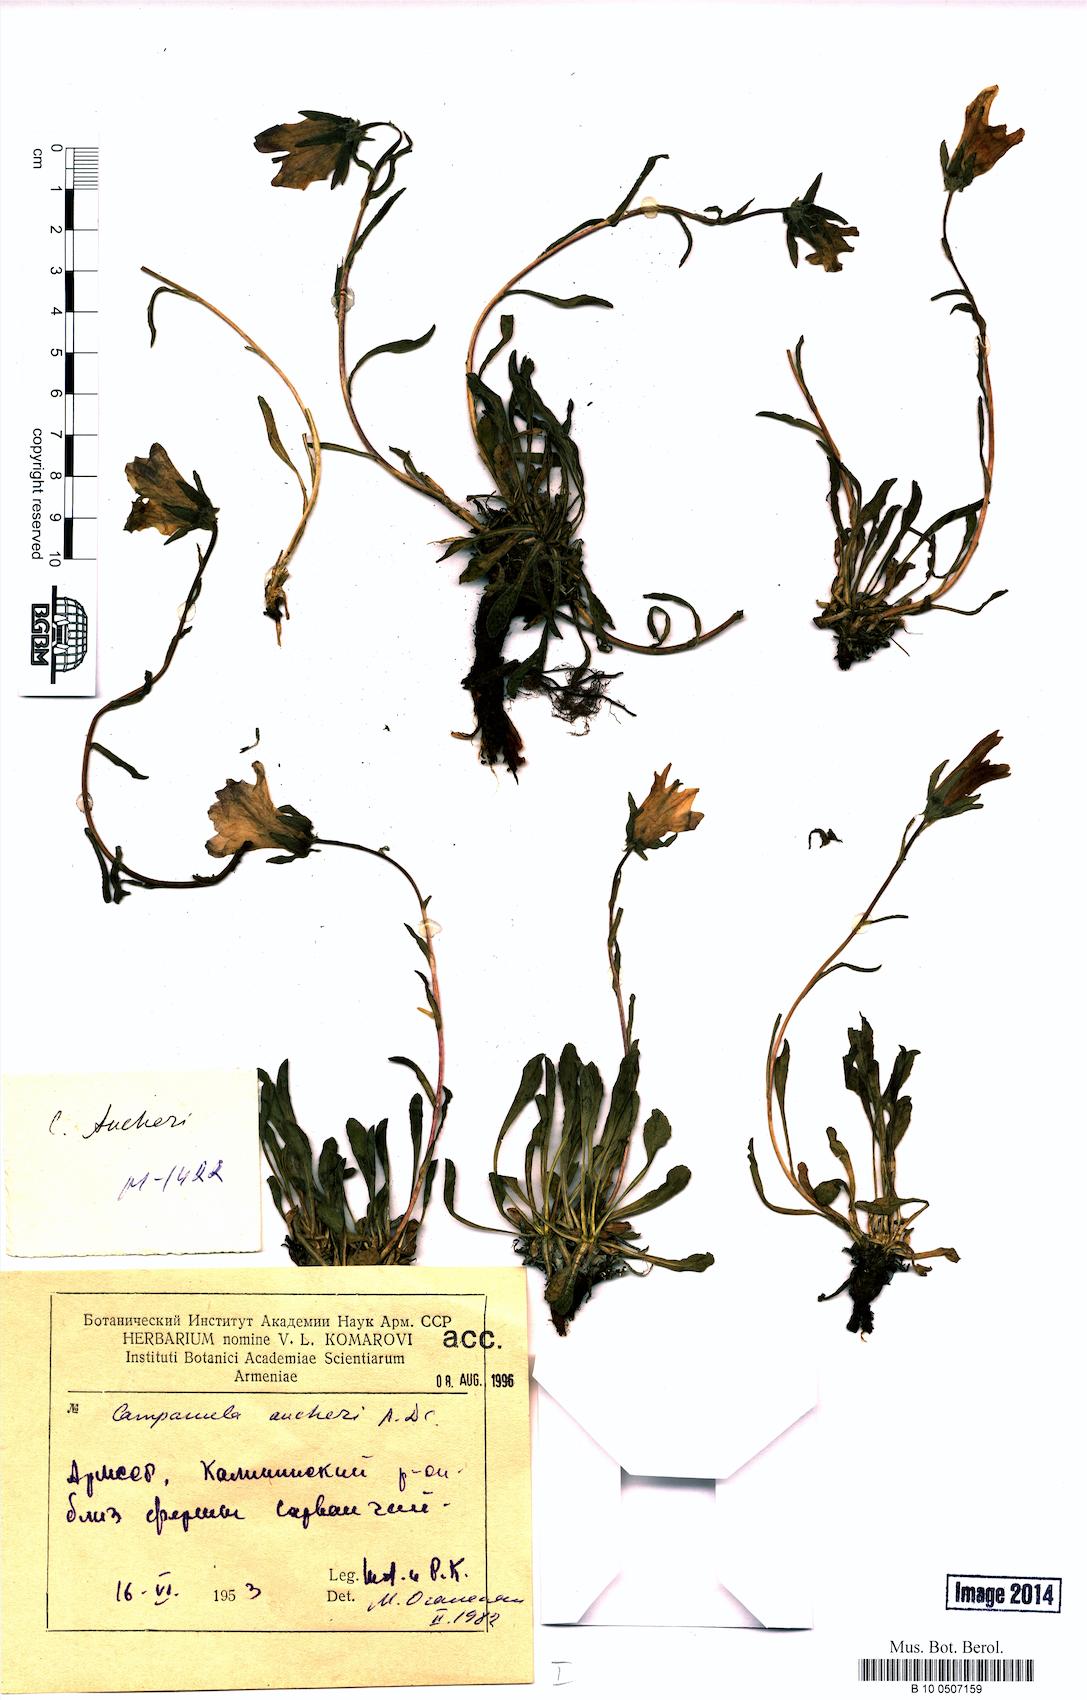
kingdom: Plantae
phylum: Tracheophyta
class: Magnoliopsida
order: Asterales
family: Campanulaceae
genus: Campanula
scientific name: Campanula saxifraga
